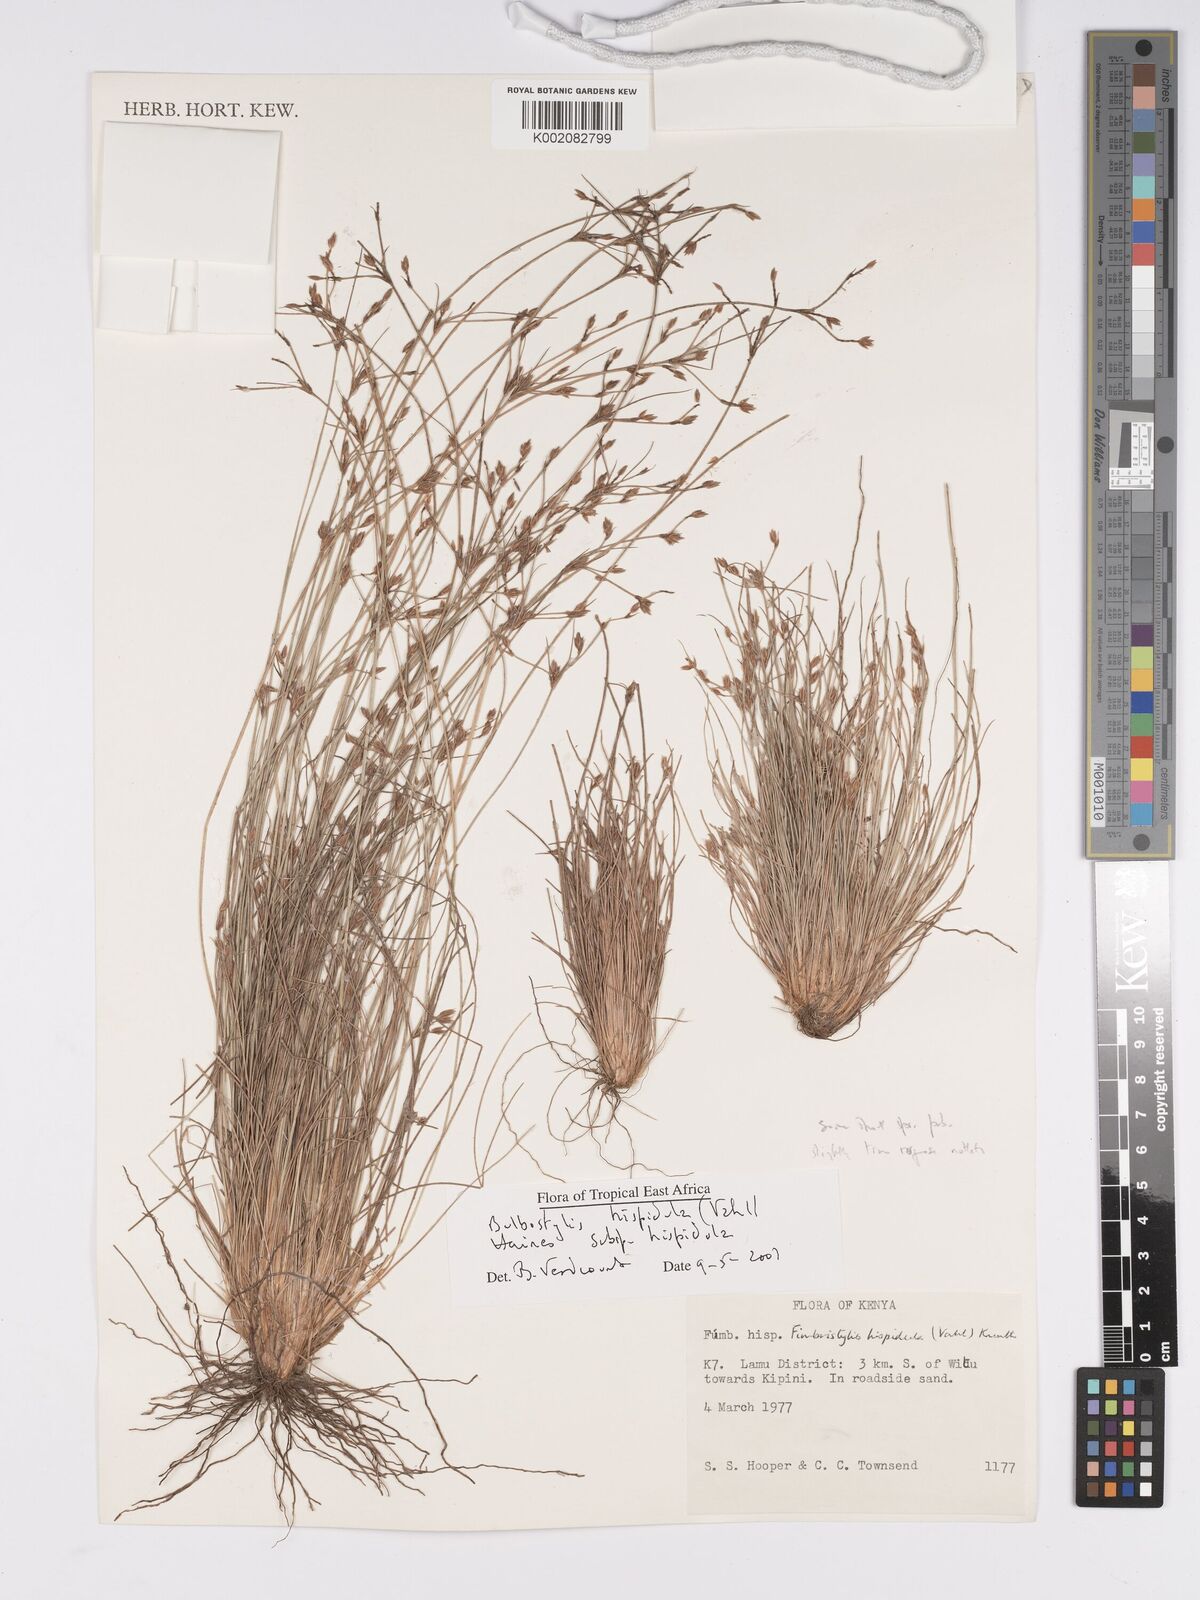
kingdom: Plantae
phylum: Tracheophyta
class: Liliopsida
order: Poales
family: Cyperaceae
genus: Bulbostylis
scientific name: Bulbostylis hispidula
